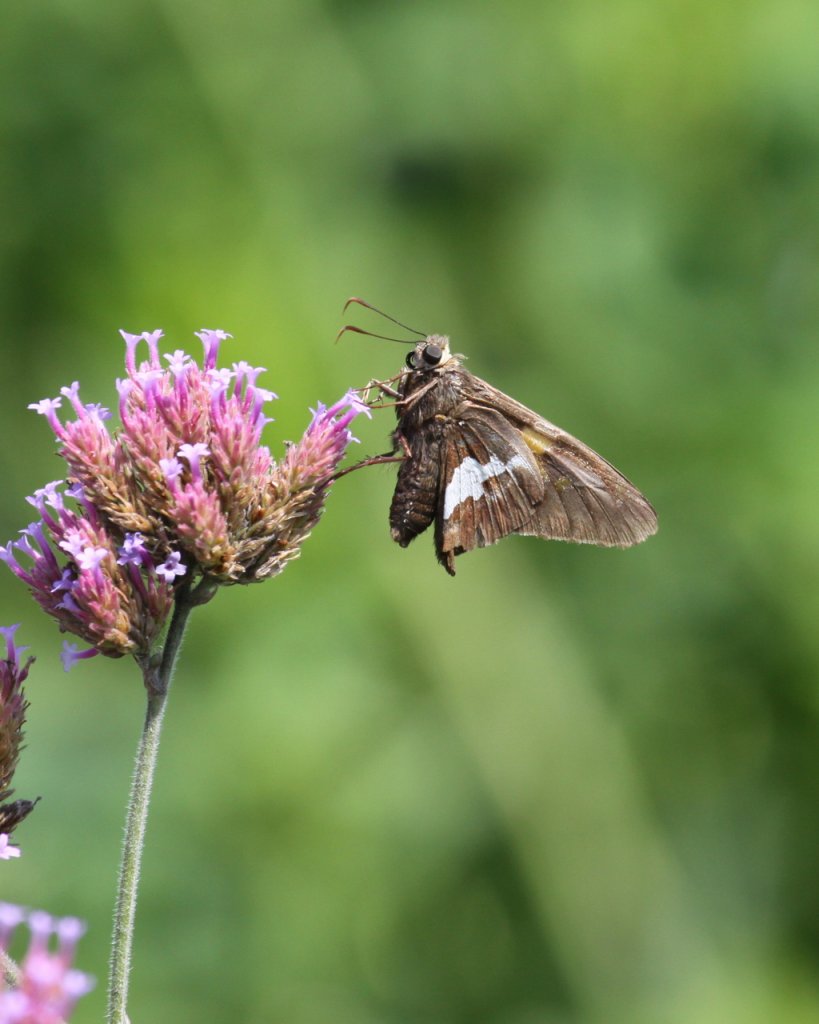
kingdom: Animalia
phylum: Arthropoda
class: Insecta
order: Lepidoptera
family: Hesperiidae
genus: Epargyreus
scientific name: Epargyreus clarus
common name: Silver-spotted Skipper
